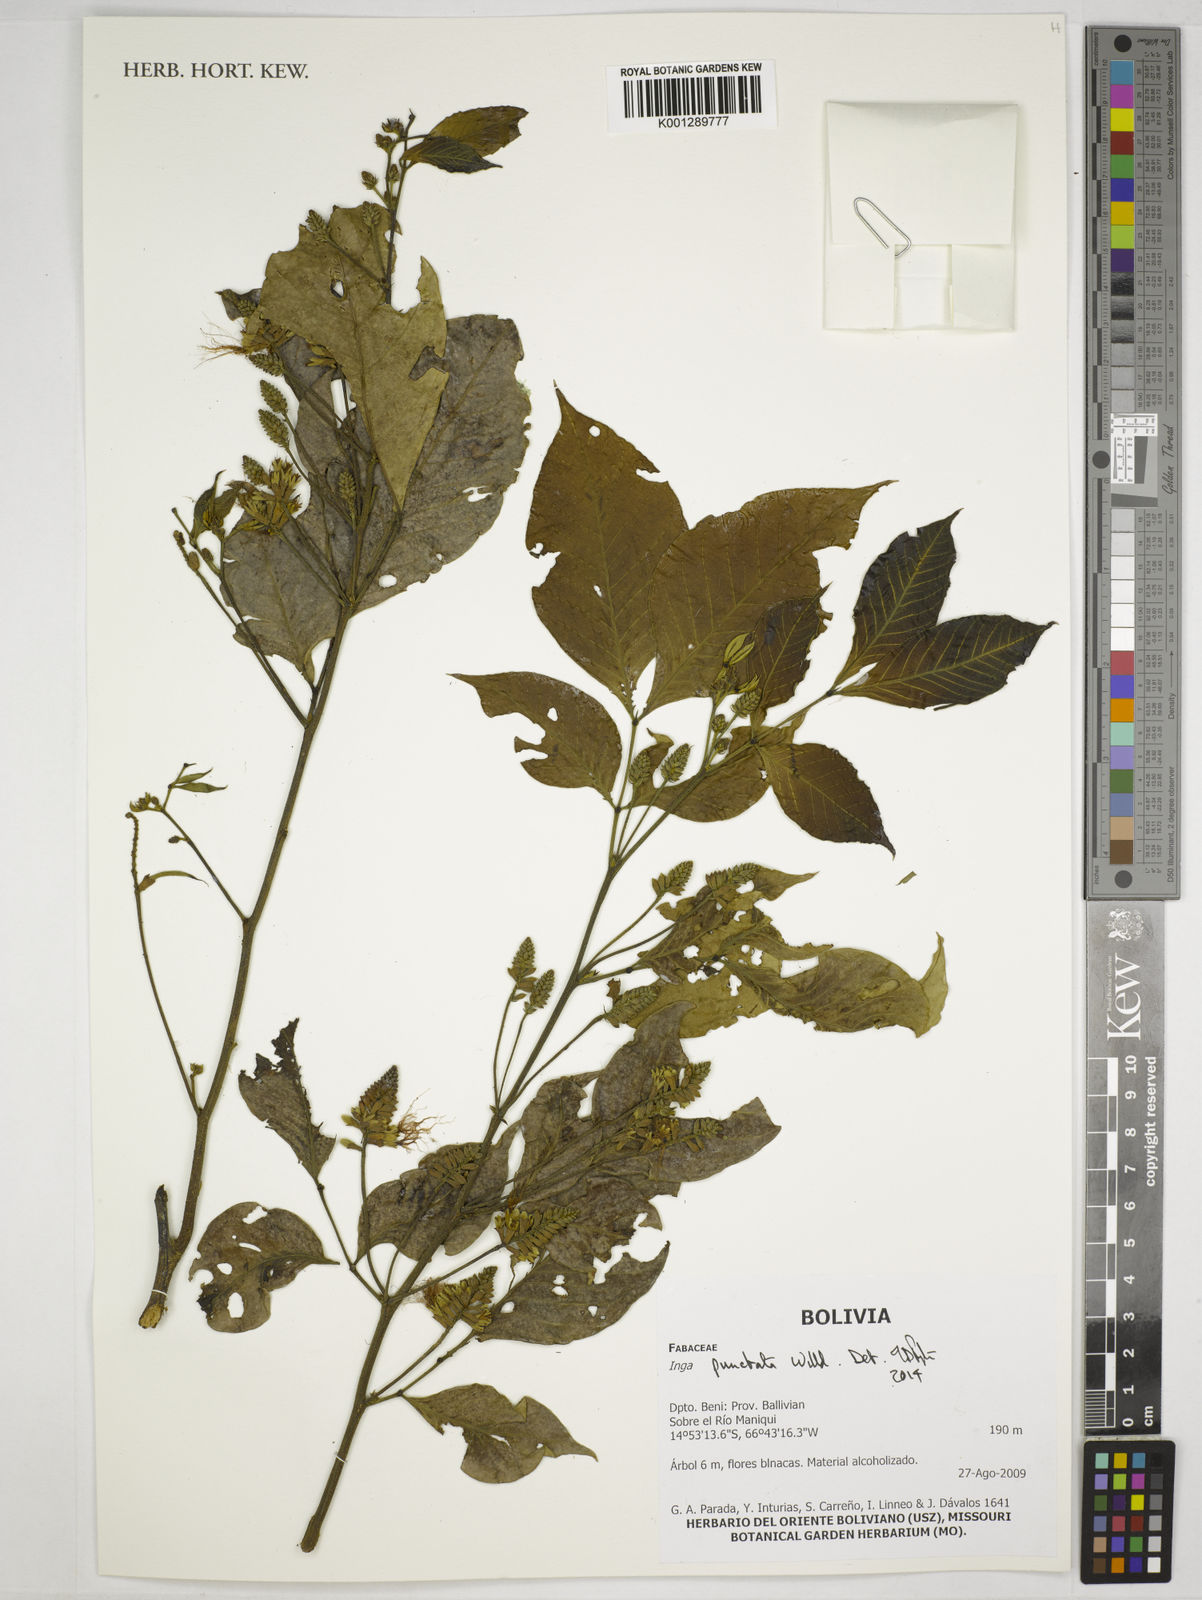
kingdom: Plantae
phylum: Tracheophyta
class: Magnoliopsida
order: Fabales
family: Fabaceae
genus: Inga
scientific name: Inga punctata
